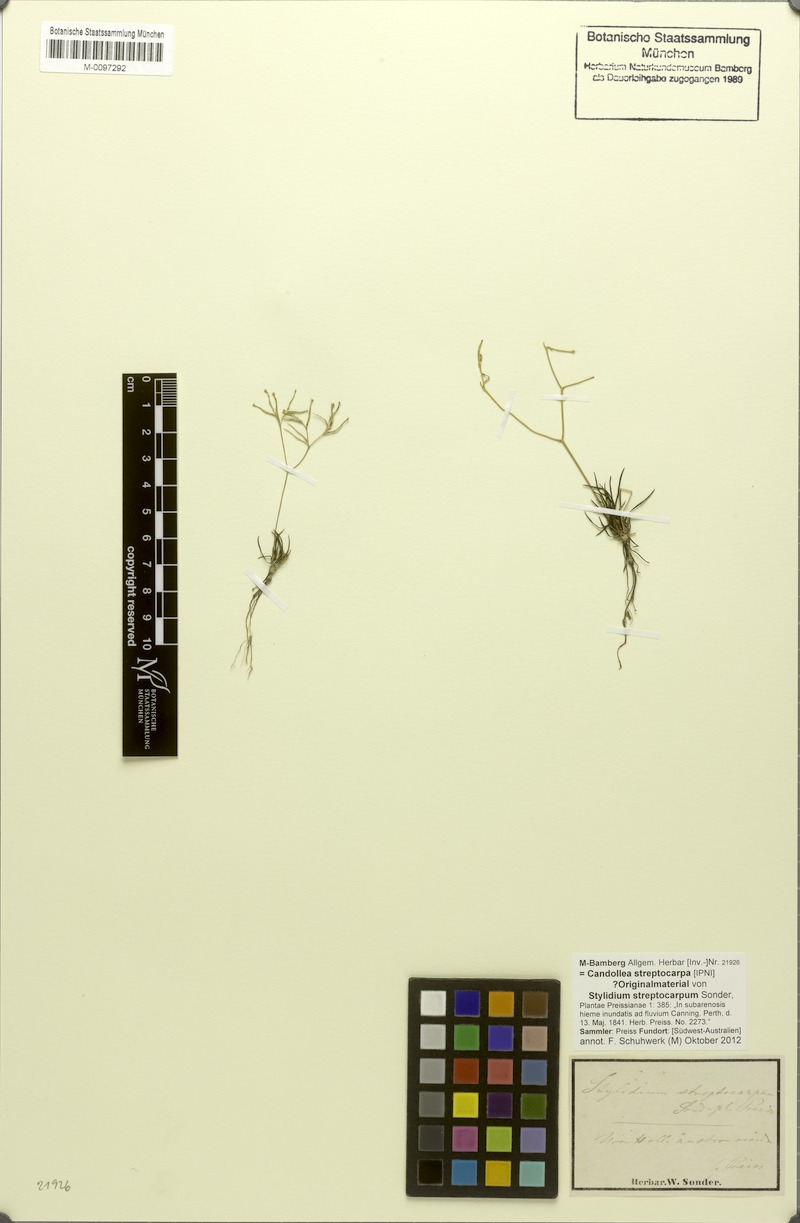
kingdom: Plantae
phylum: Tracheophyta
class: Magnoliopsida
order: Asterales
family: Stylidiaceae
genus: Stylidium
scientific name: Stylidium divaricatum
